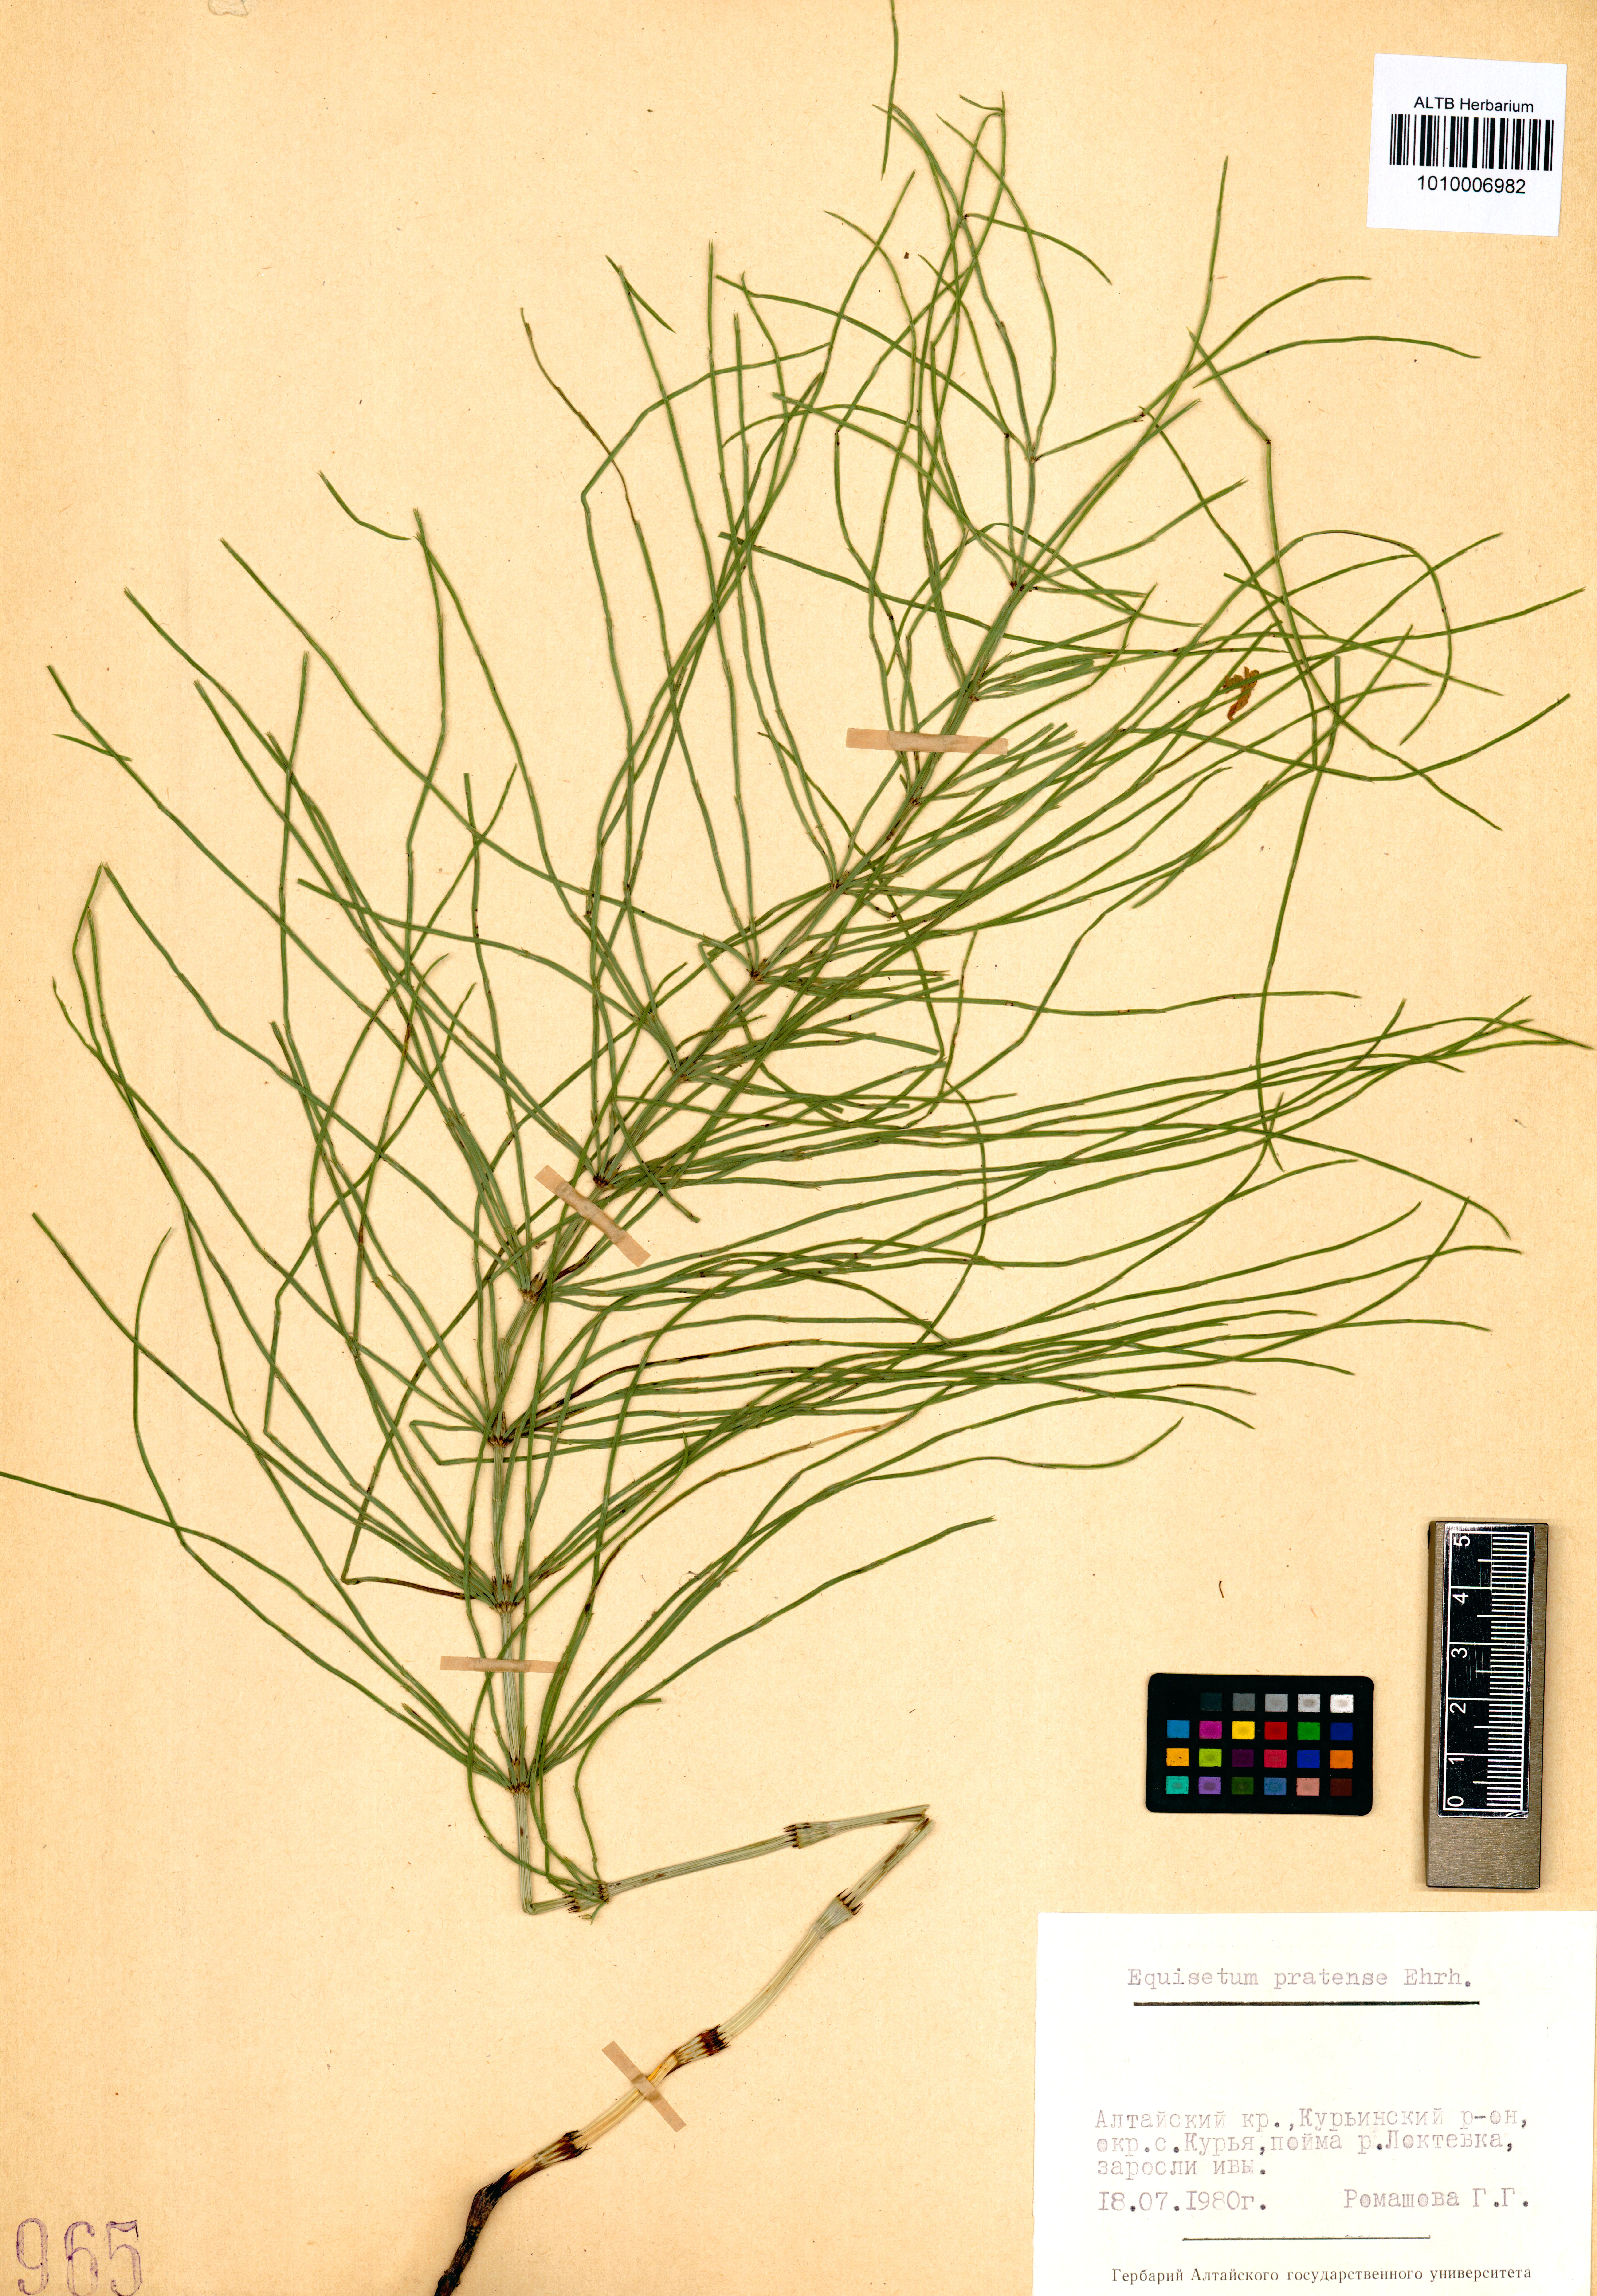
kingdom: Plantae
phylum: Tracheophyta
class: Polypodiopsida
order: Equisetales
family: Equisetaceae
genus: Equisetum
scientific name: Equisetum pratense
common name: Meadow horsetail
